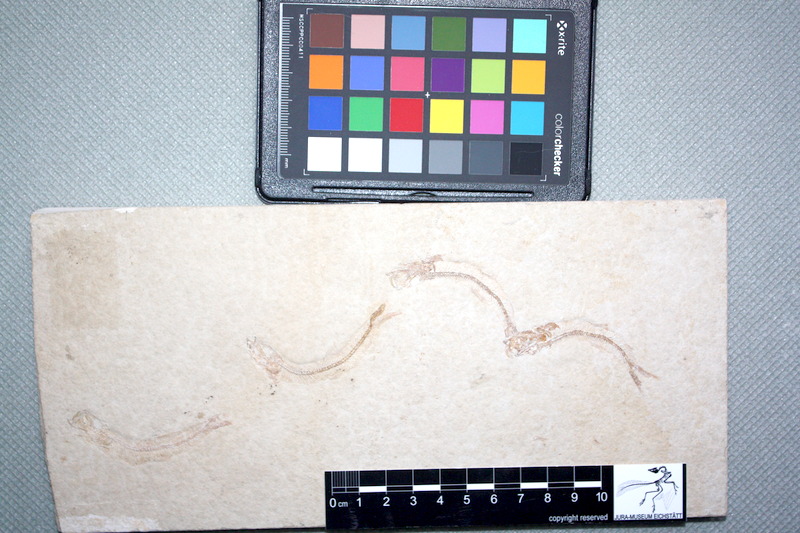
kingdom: Animalia
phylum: Chordata
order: Salmoniformes
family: Orthogonikleithridae
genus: Leptolepides
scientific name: Leptolepides
